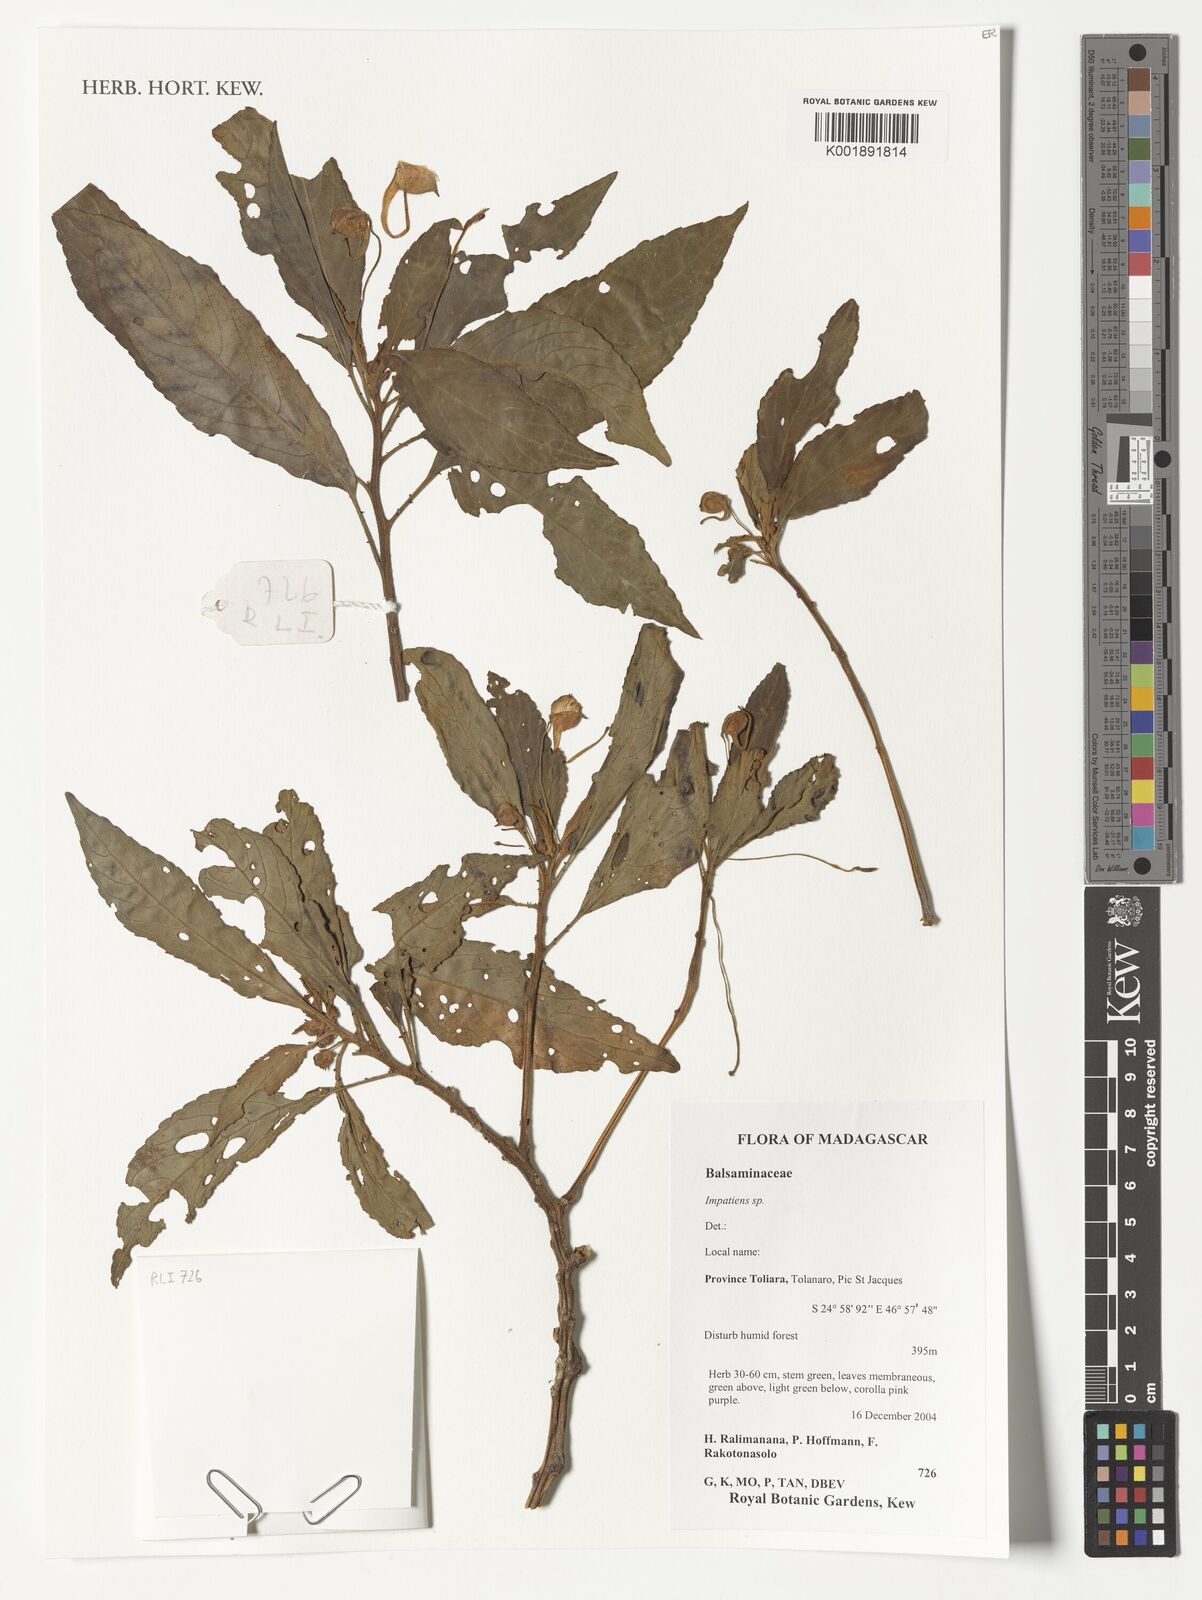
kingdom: Plantae
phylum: Tracheophyta
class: Magnoliopsida
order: Ericales
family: Balsaminaceae
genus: Impatiens
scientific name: Impatiens
